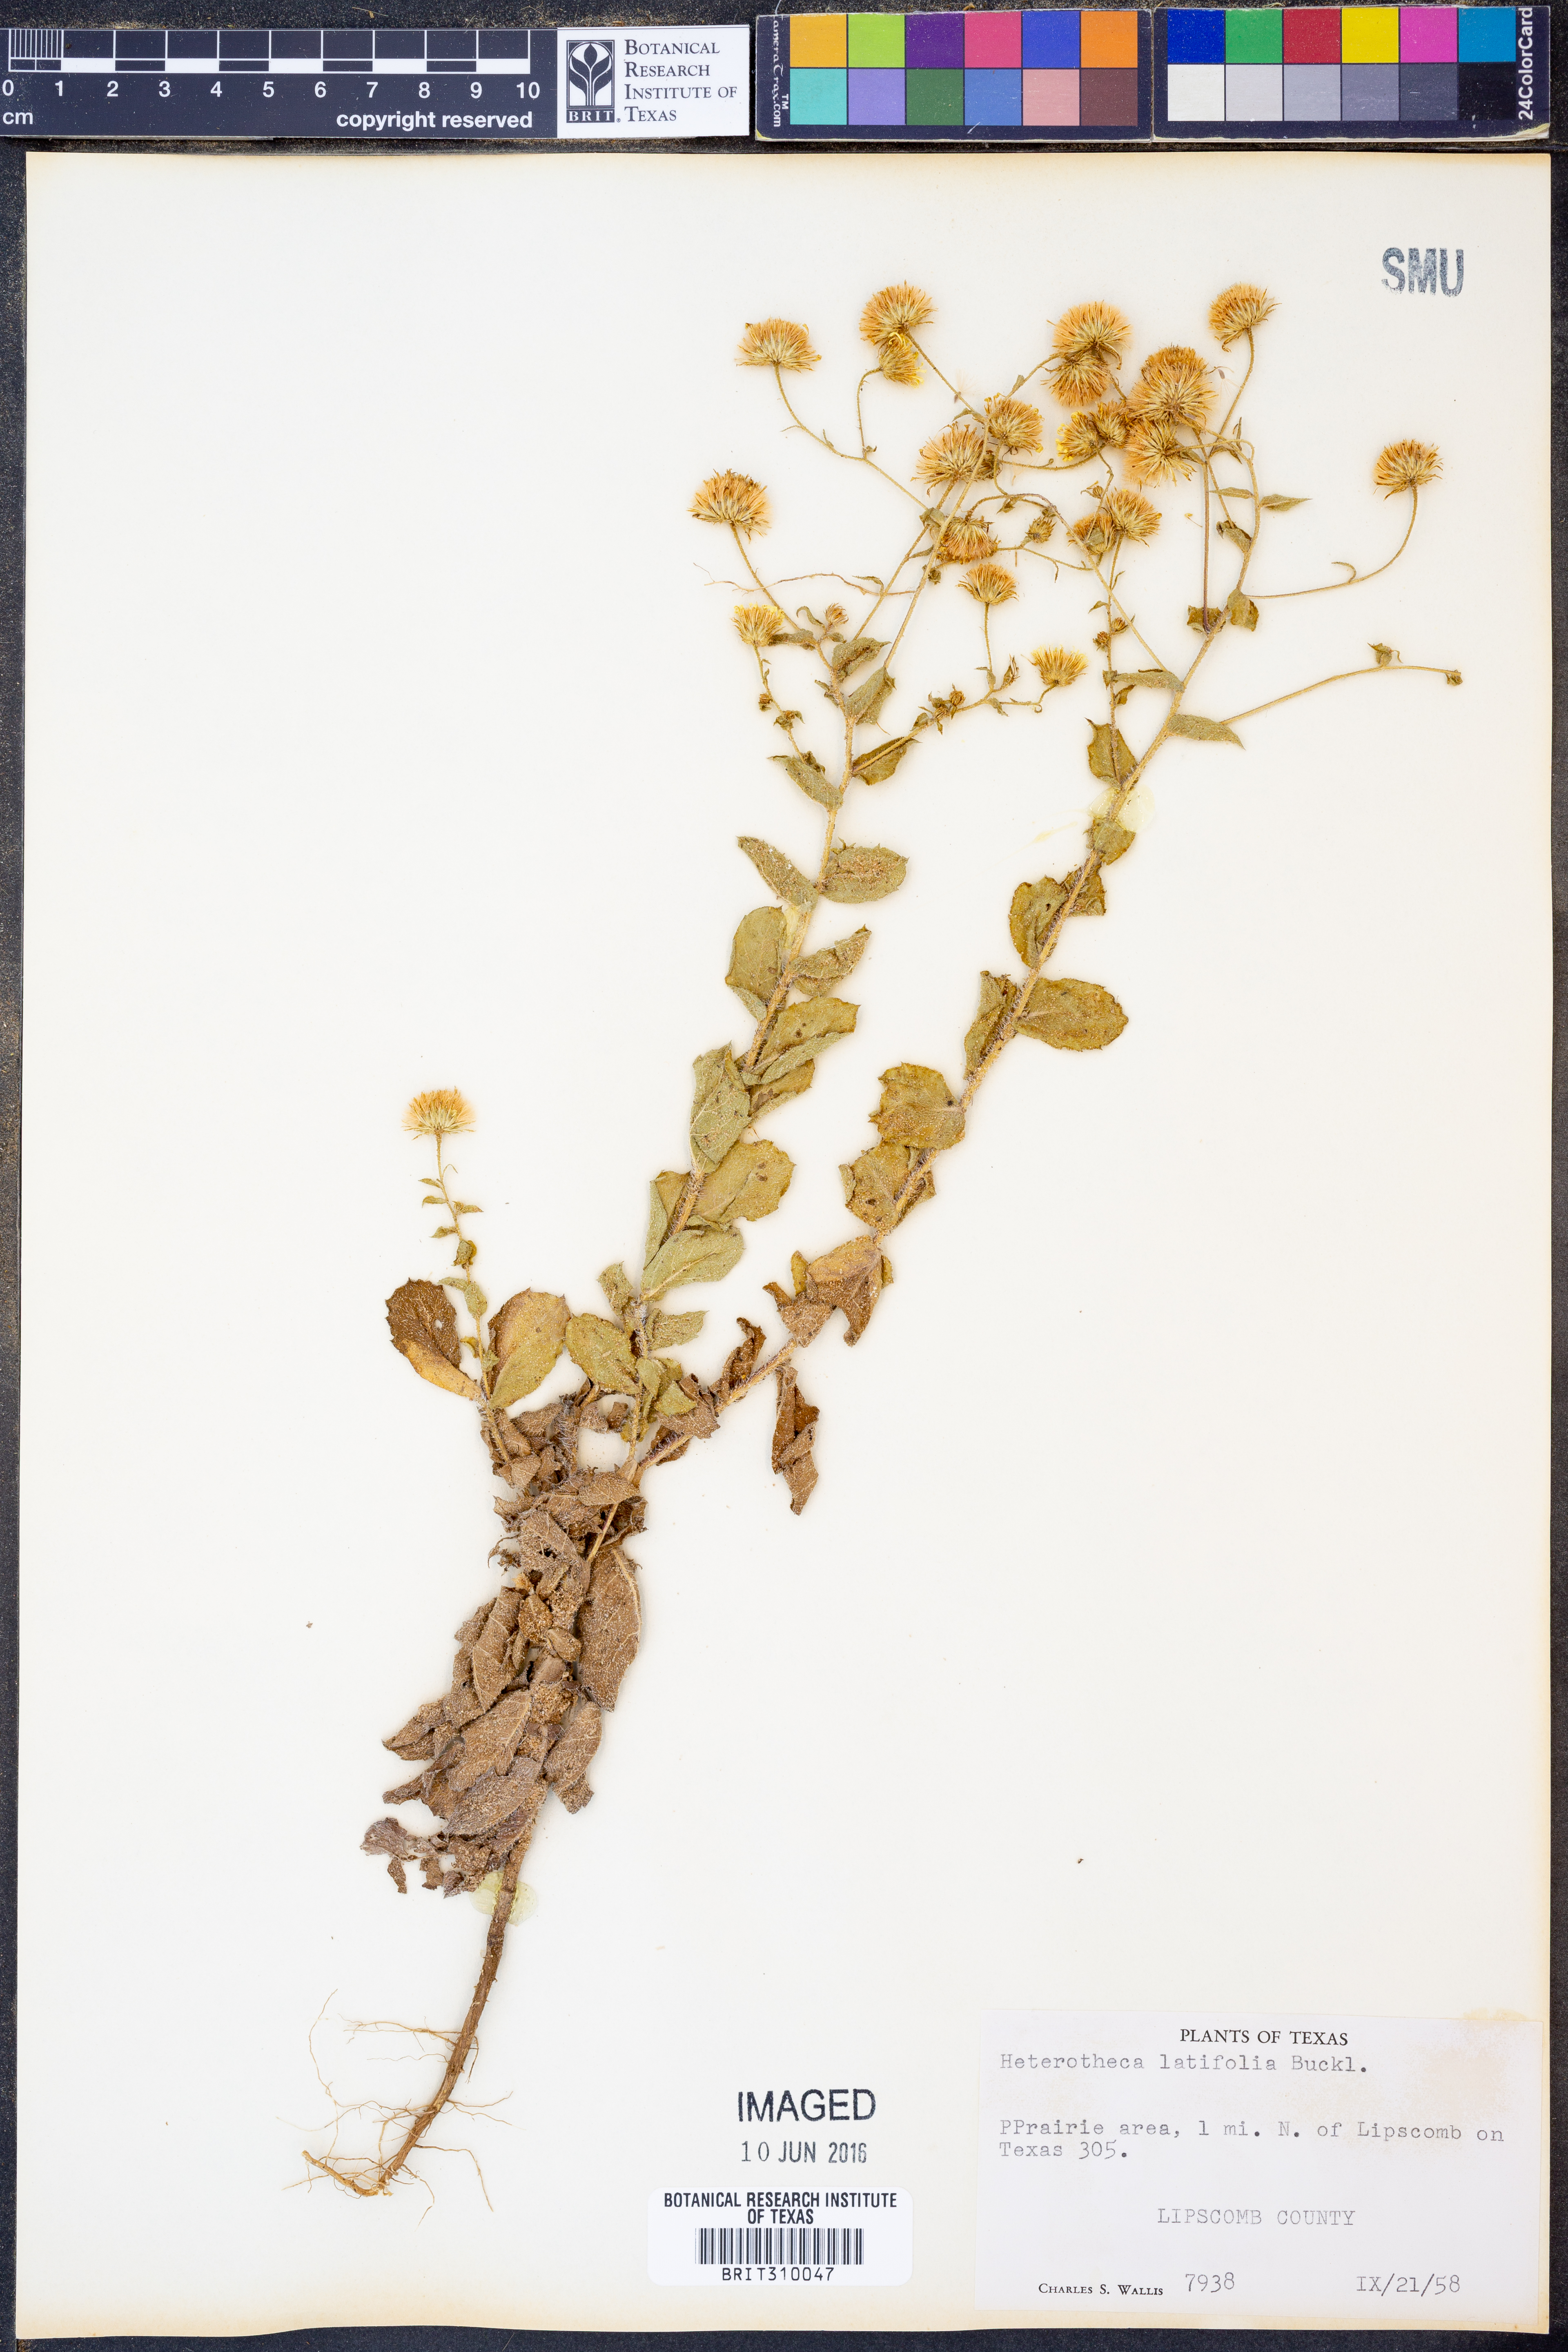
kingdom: Plantae
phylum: Tracheophyta
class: Magnoliopsida
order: Asterales
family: Asteraceae
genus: Heterotheca
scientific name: Heterotheca subaxillaris
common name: Camphorweed
